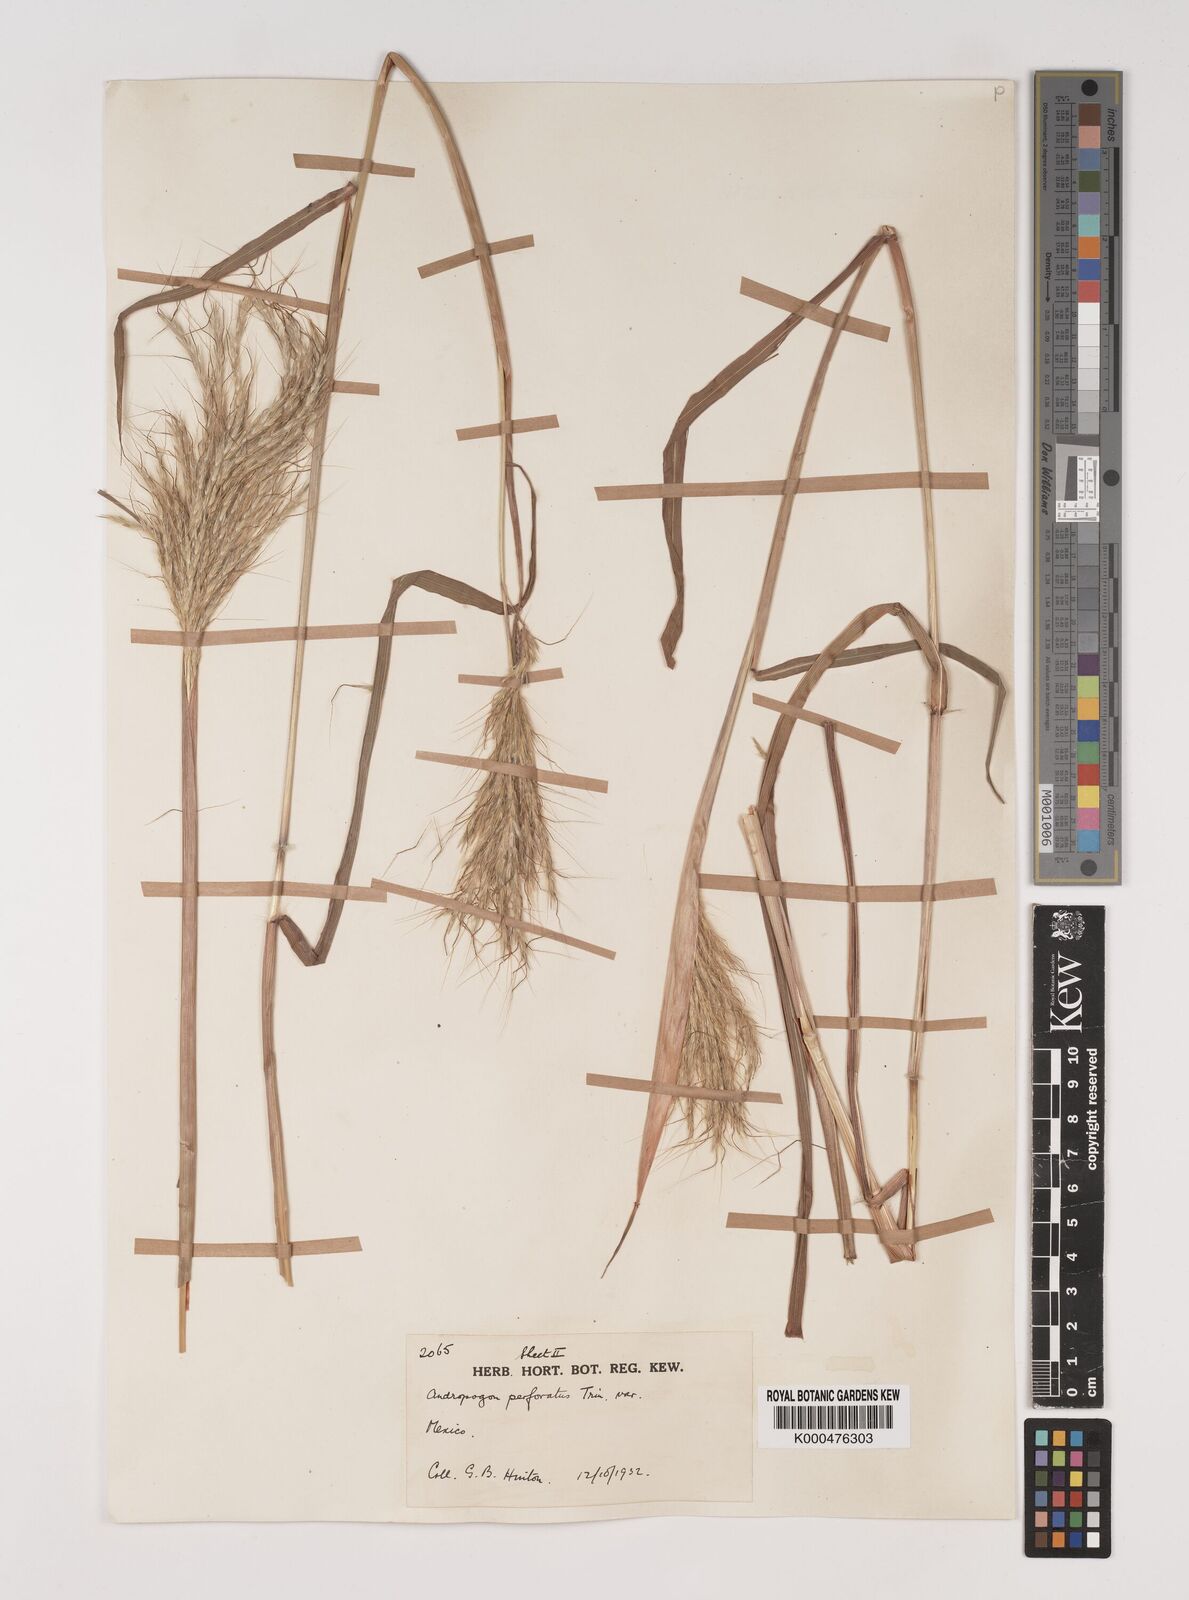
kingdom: Plantae
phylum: Tracheophyta
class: Liliopsida
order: Poales
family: Poaceae
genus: Bothriochloa
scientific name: Bothriochloa barbinodis
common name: Cane bluestem
